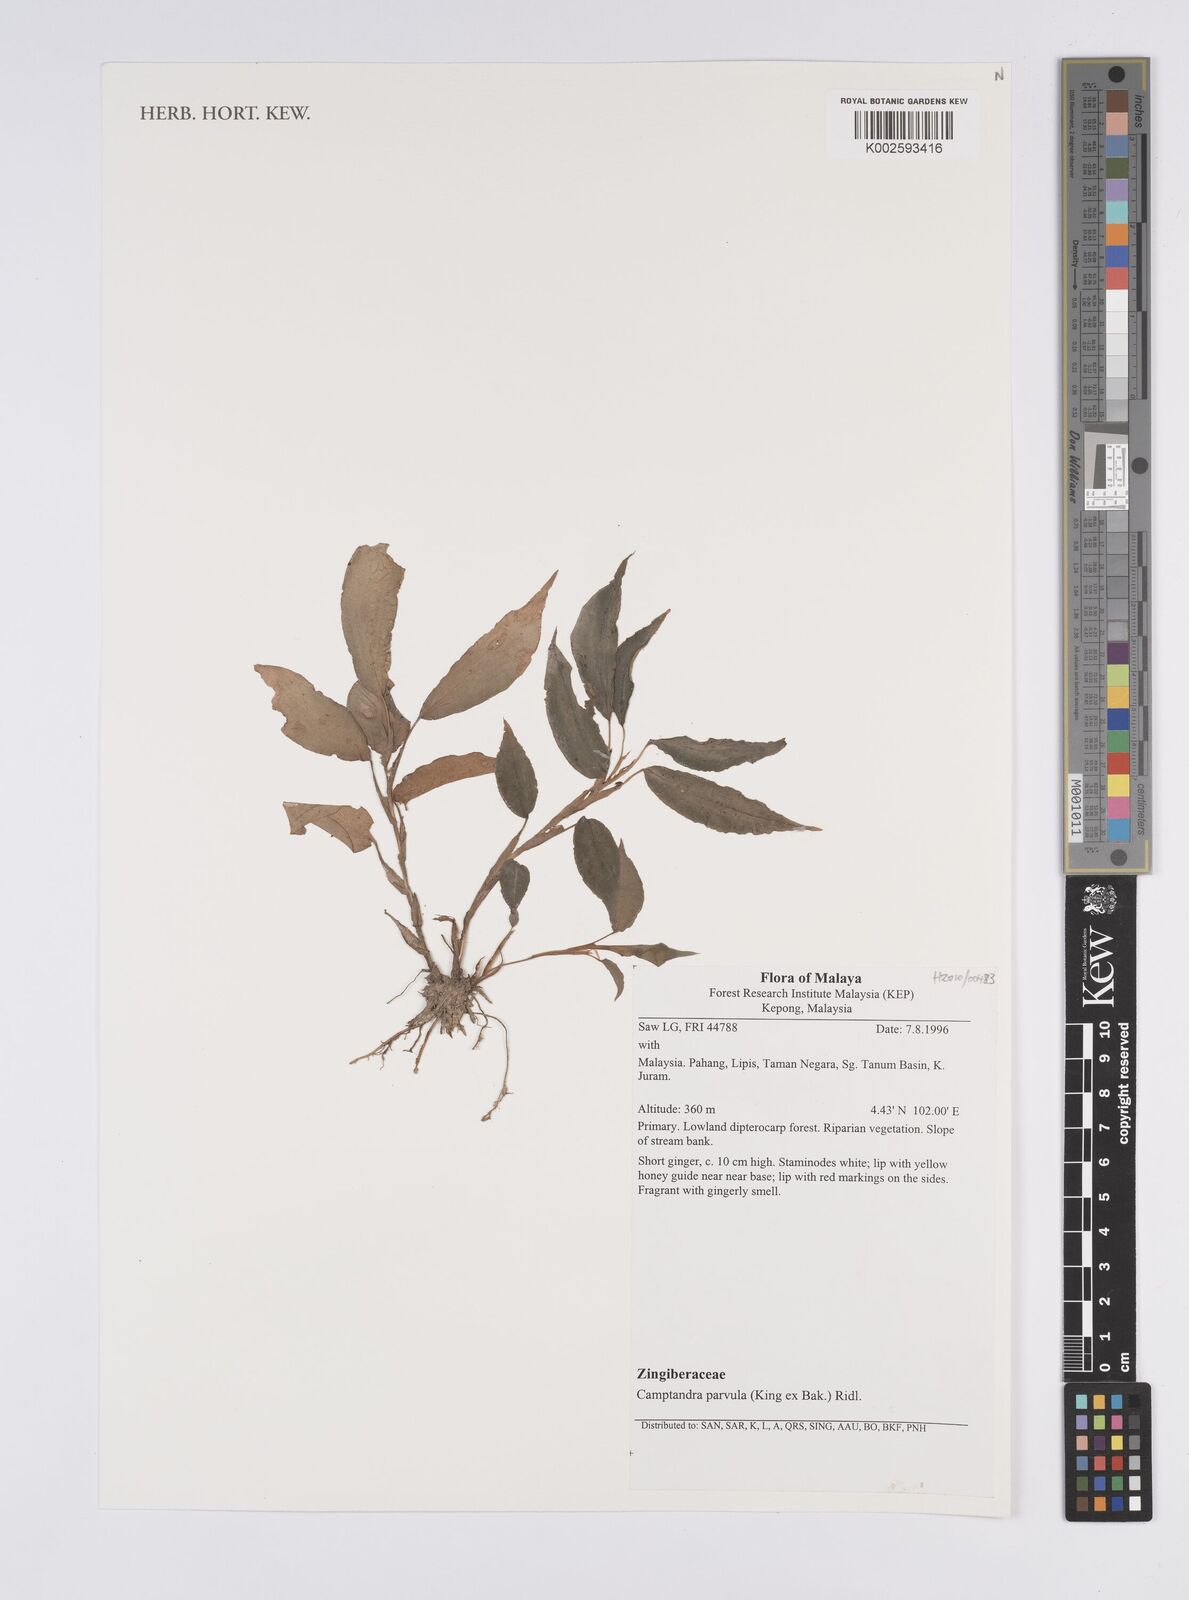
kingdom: Plantae
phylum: Tracheophyta
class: Liliopsida
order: Zingiberales
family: Zingiberaceae
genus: Camptandra
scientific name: Camptandra parvula
